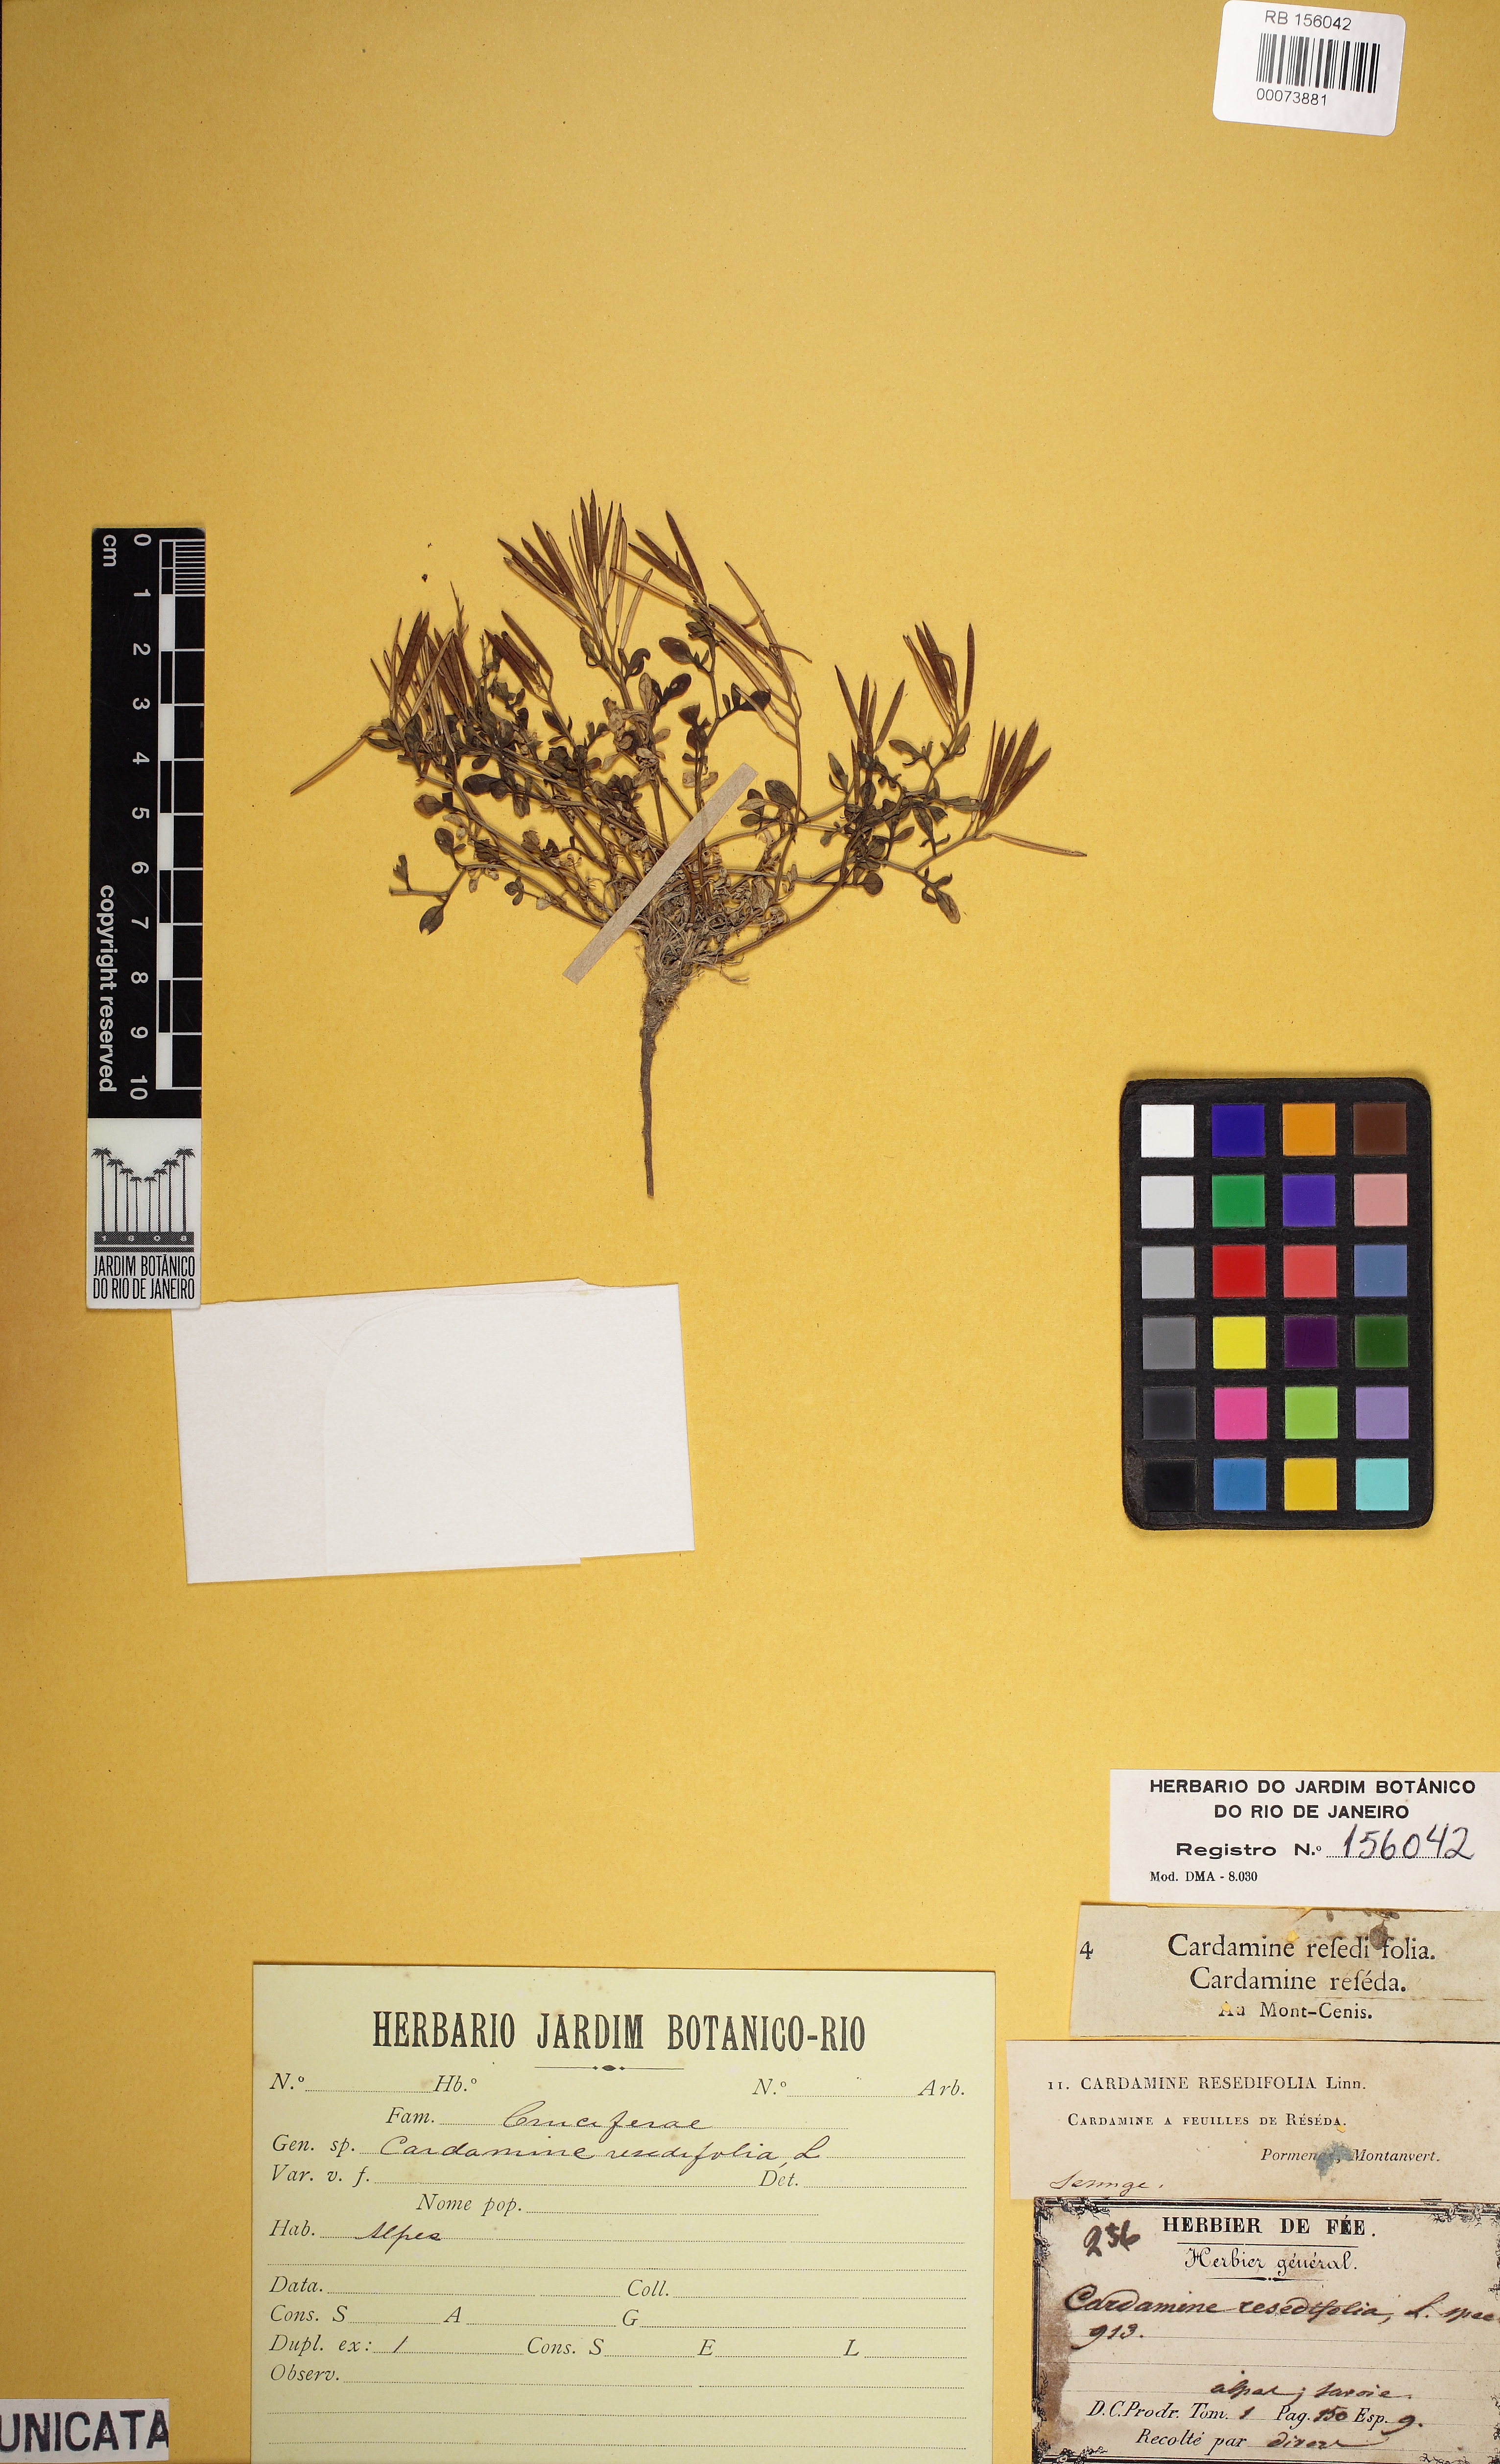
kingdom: Plantae
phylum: Tracheophyta
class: Magnoliopsida
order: Brassicales
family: Brassicaceae
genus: Cardamine
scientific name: Cardamine resedifolia
